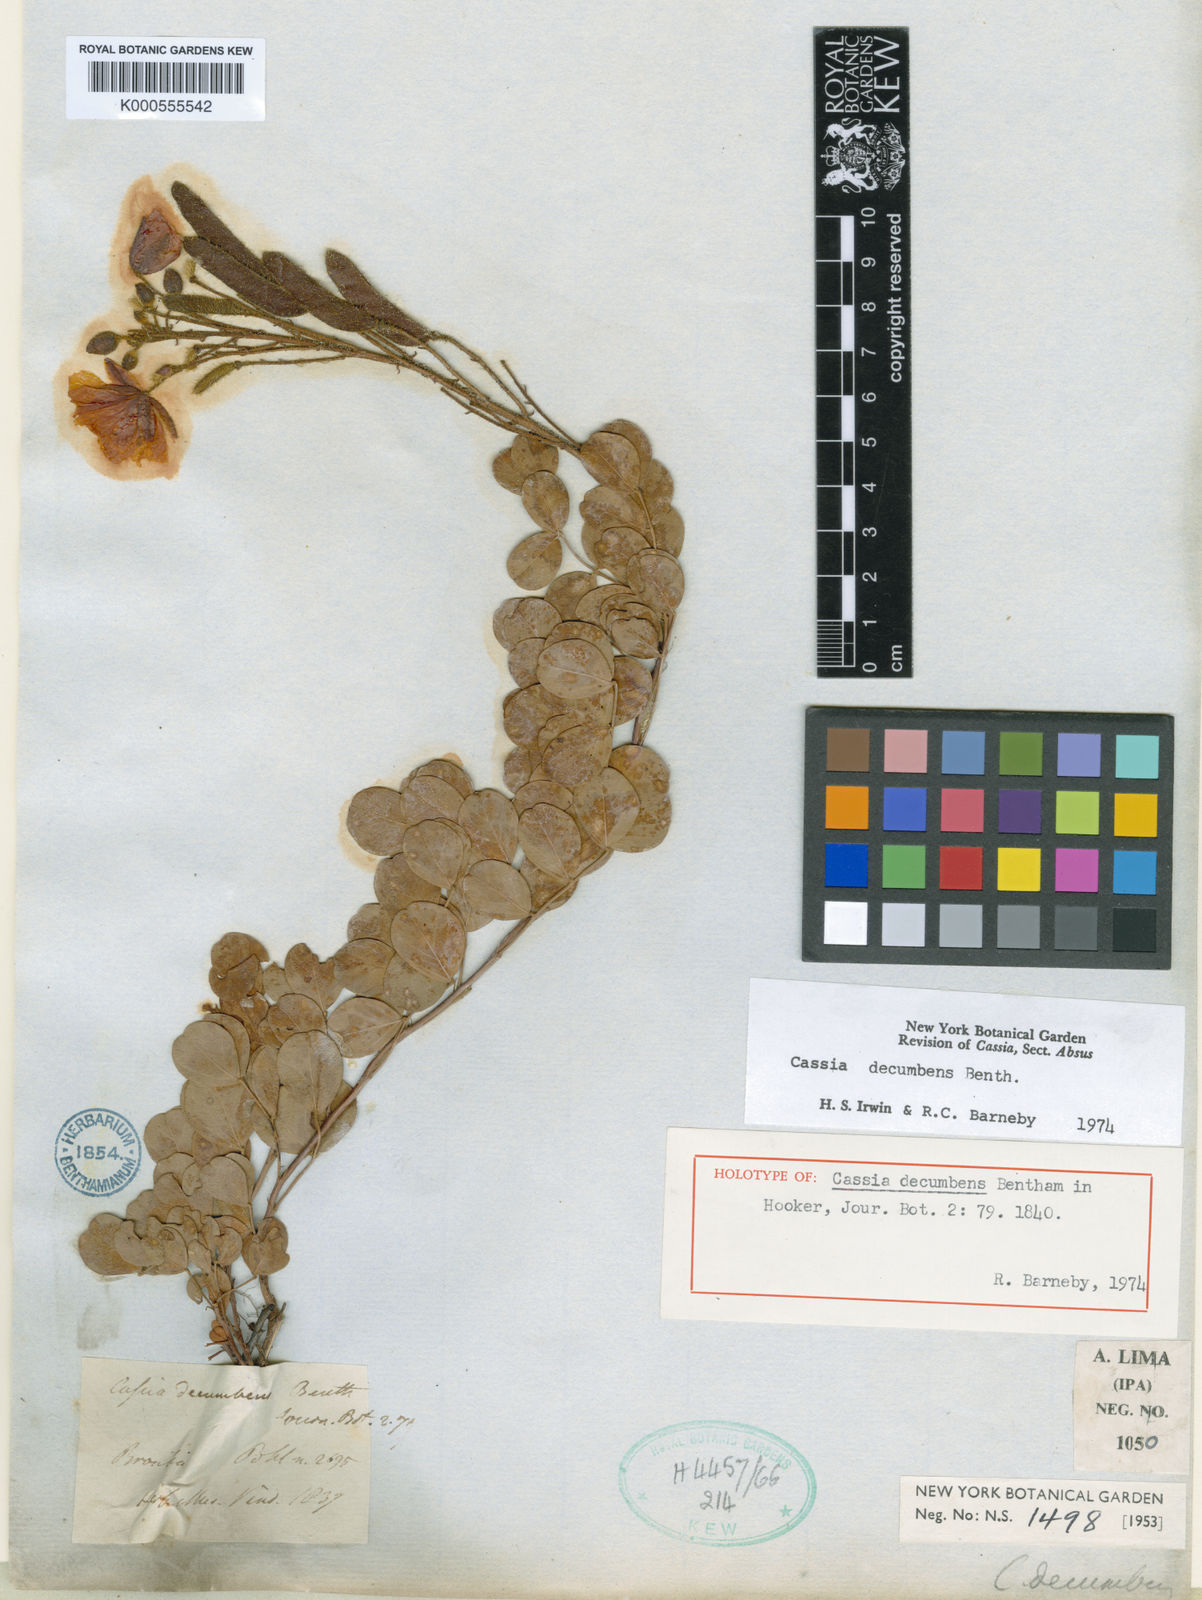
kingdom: Plantae
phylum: Tracheophyta
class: Magnoliopsida
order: Fabales
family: Fabaceae
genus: Chamaecrista
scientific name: Chamaecrista decumbens
